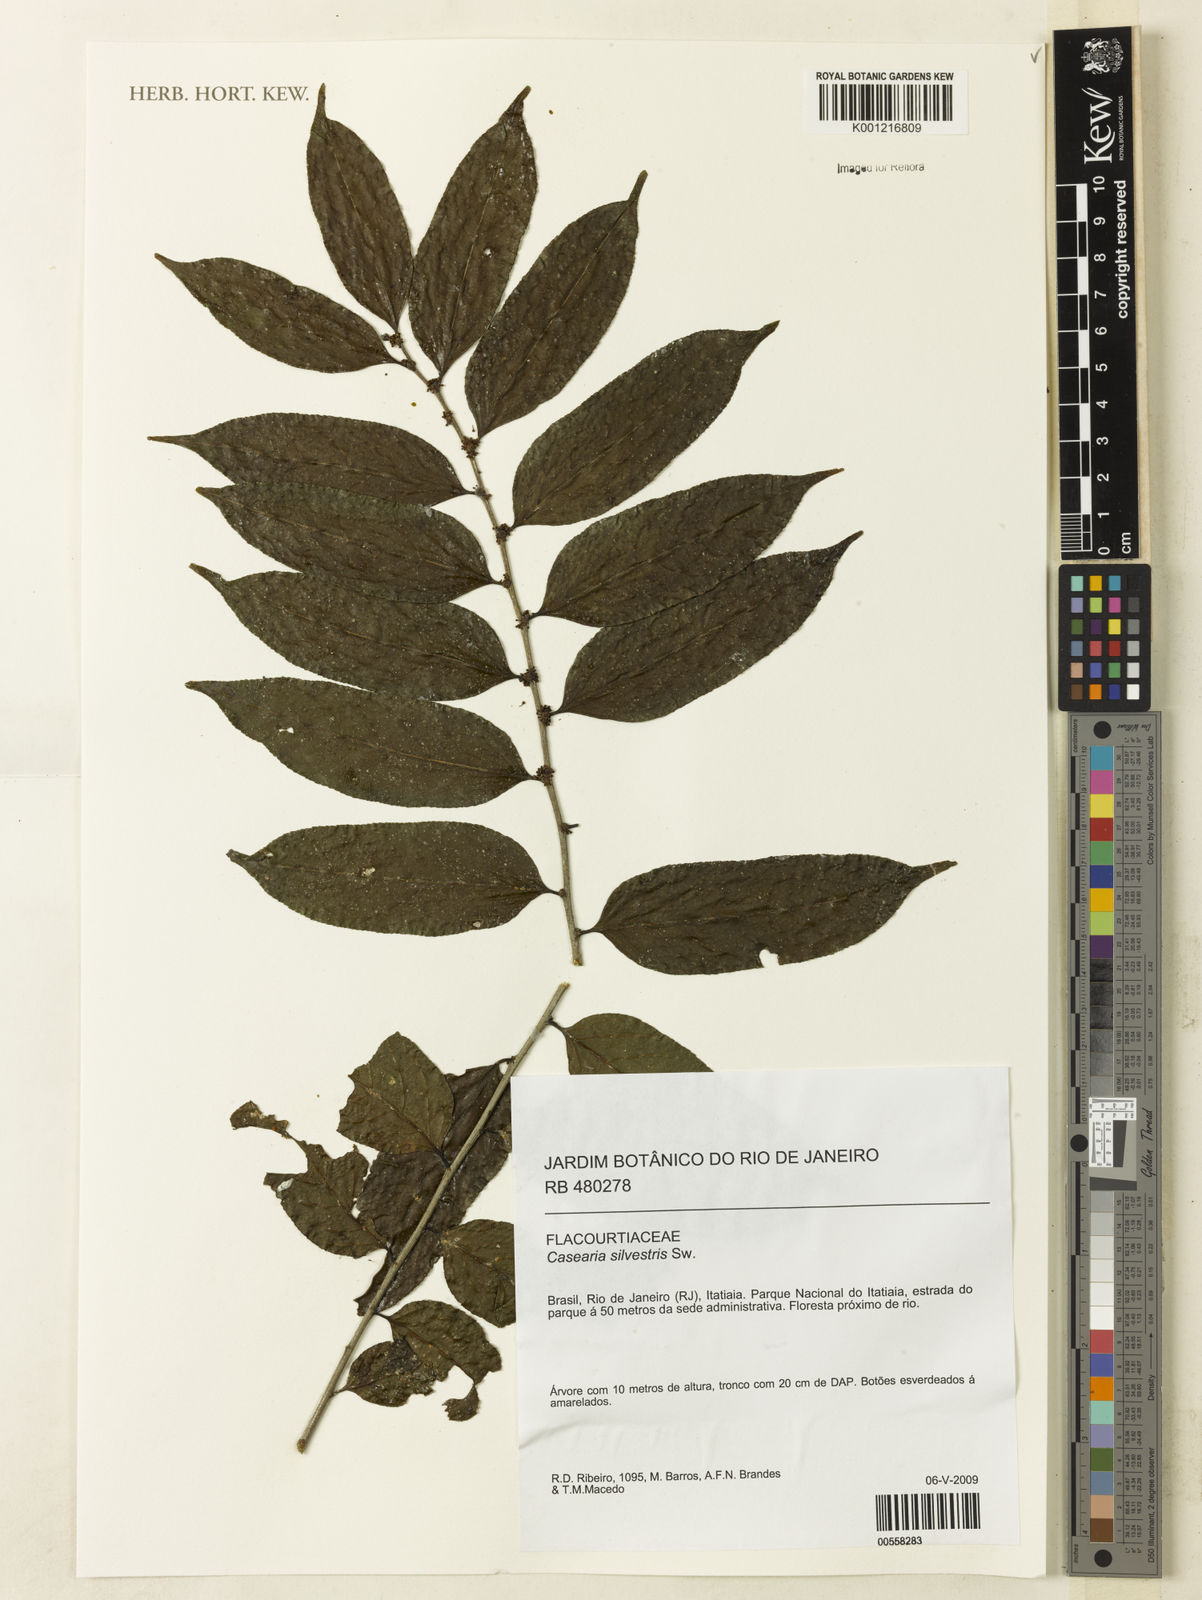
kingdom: Plantae
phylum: Tracheophyta
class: Magnoliopsida
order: Malpighiales
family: Salicaceae
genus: Casearia
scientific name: Casearia sylvestris
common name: Wild sage
